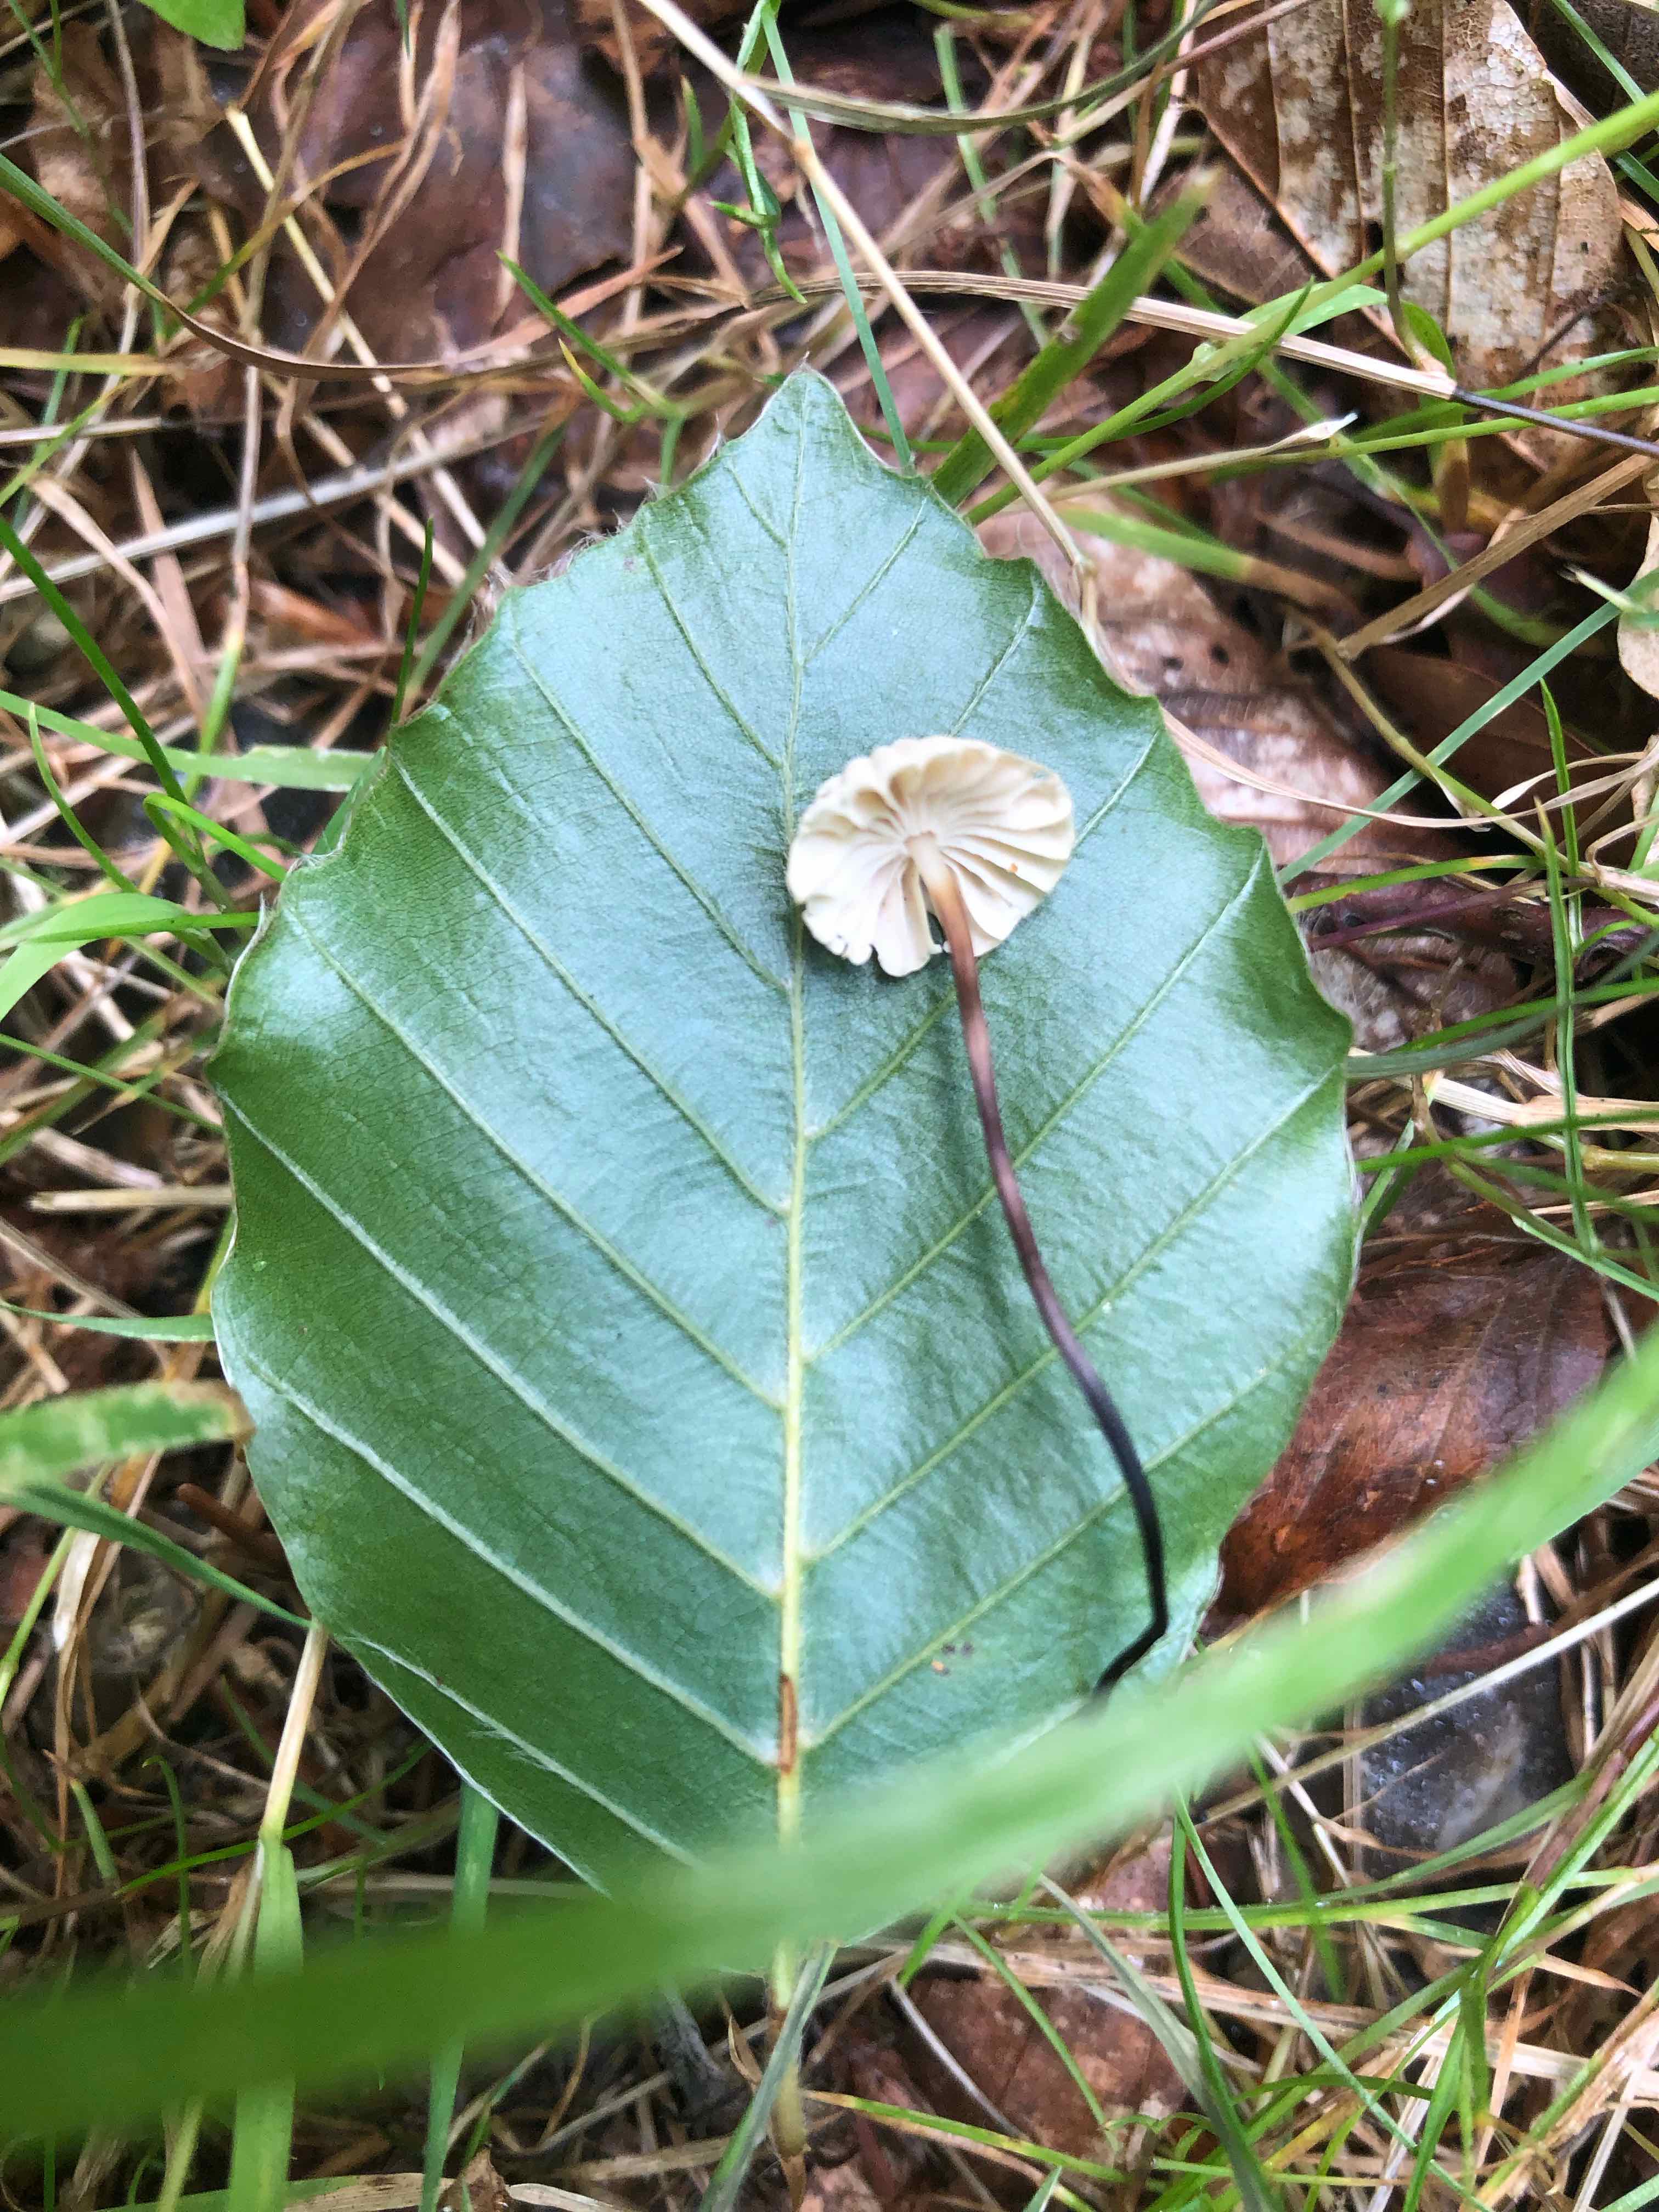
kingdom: Fungi
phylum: Basidiomycota
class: Agaricomycetes
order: Agaricales
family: Marasmiaceae
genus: Marasmius
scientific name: Marasmius rotula
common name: hjul-bruskhat
